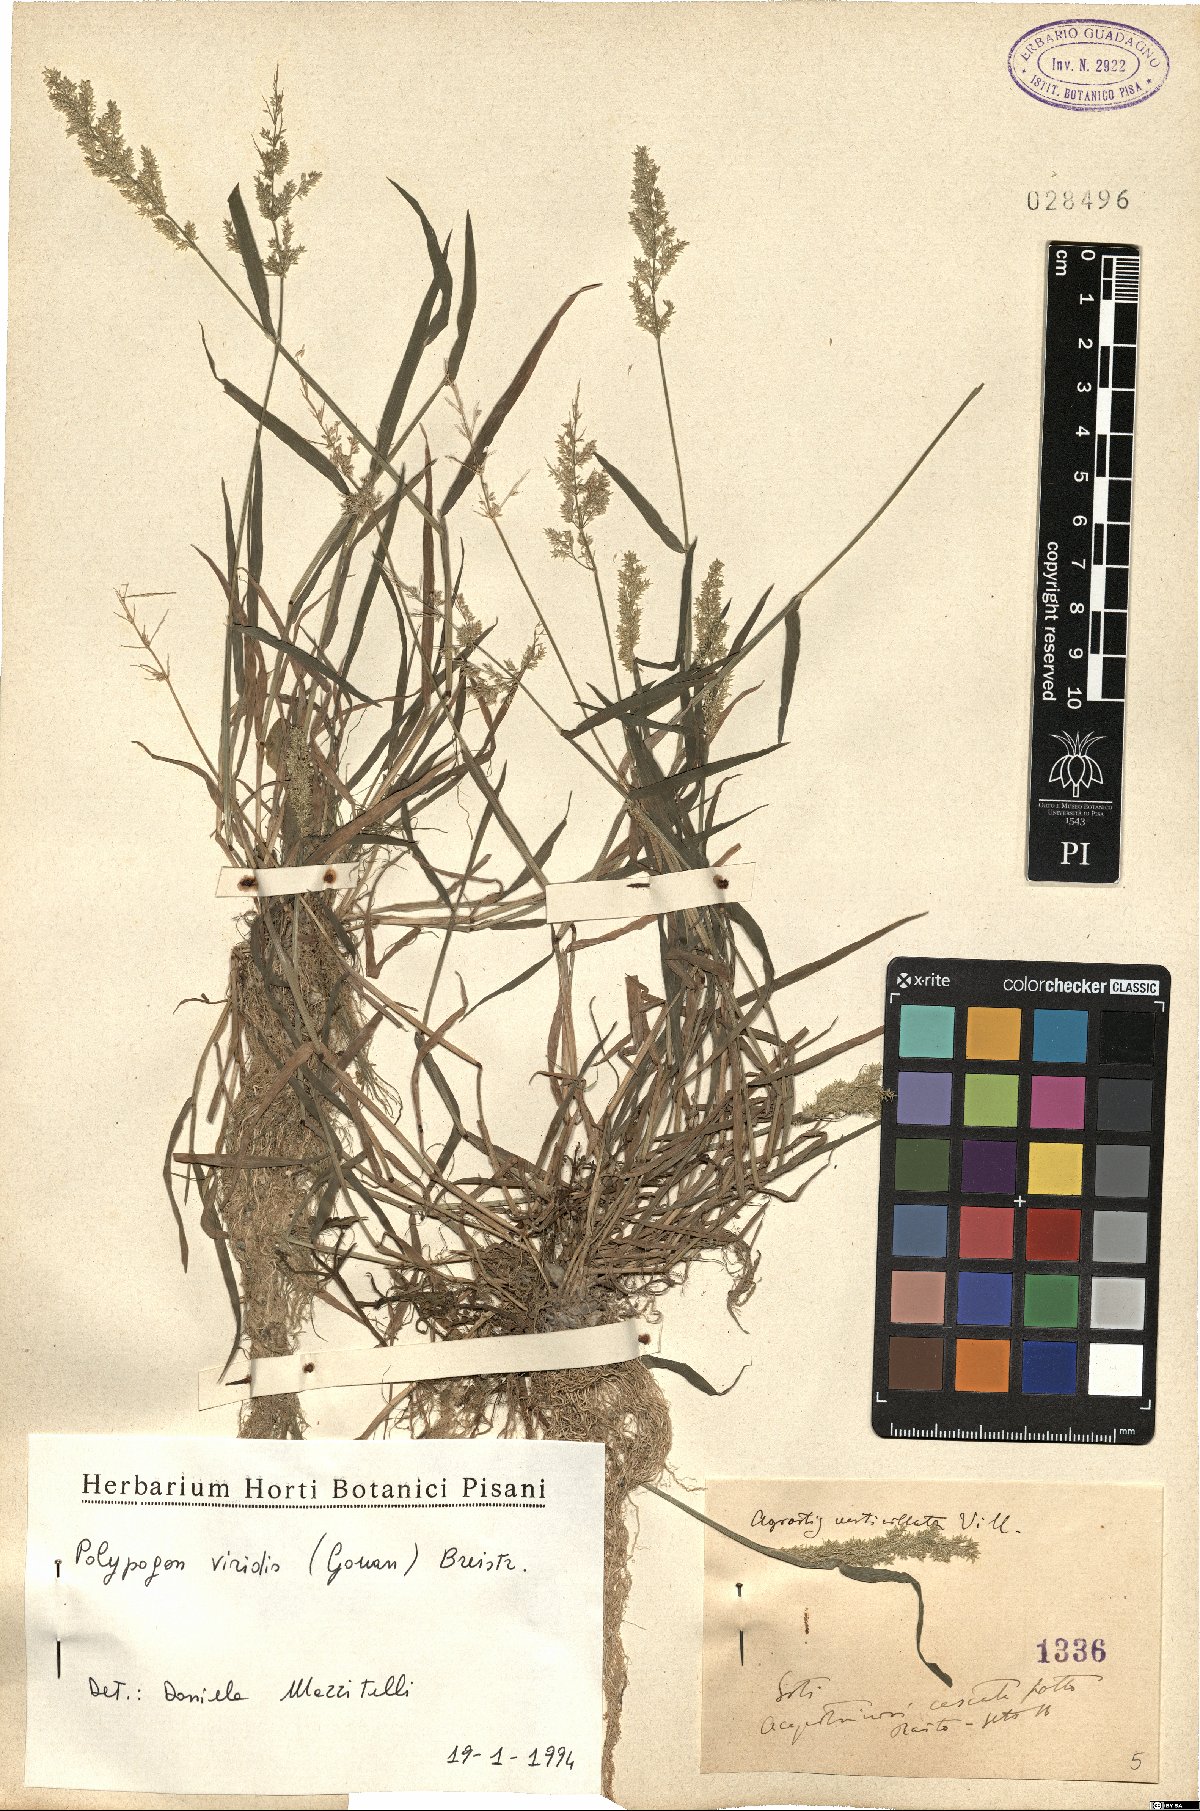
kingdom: Plantae
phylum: Tracheophyta
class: Liliopsida
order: Poales
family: Poaceae
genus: Polypogon
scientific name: Polypogon viridis
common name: Water bent
